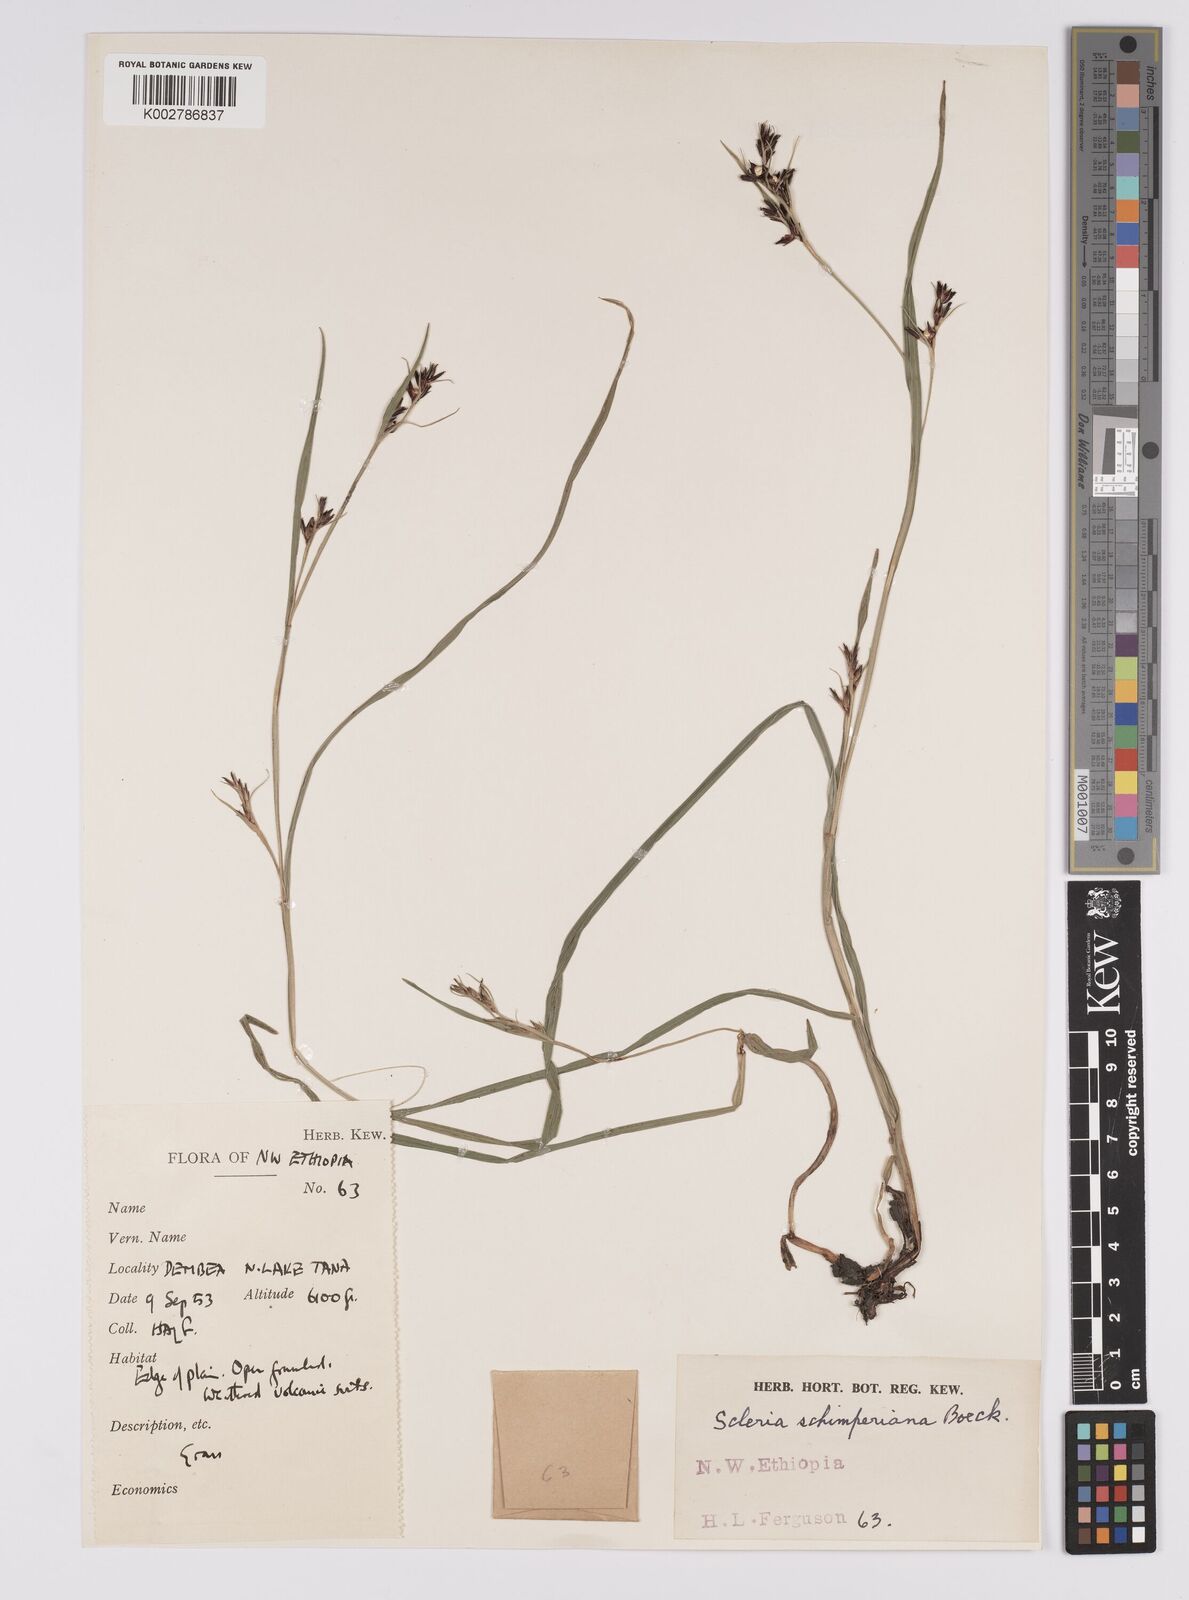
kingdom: Plantae
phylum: Tracheophyta
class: Liliopsida
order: Poales
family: Cyperaceae
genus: Scleria
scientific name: Scleria schimperiana
